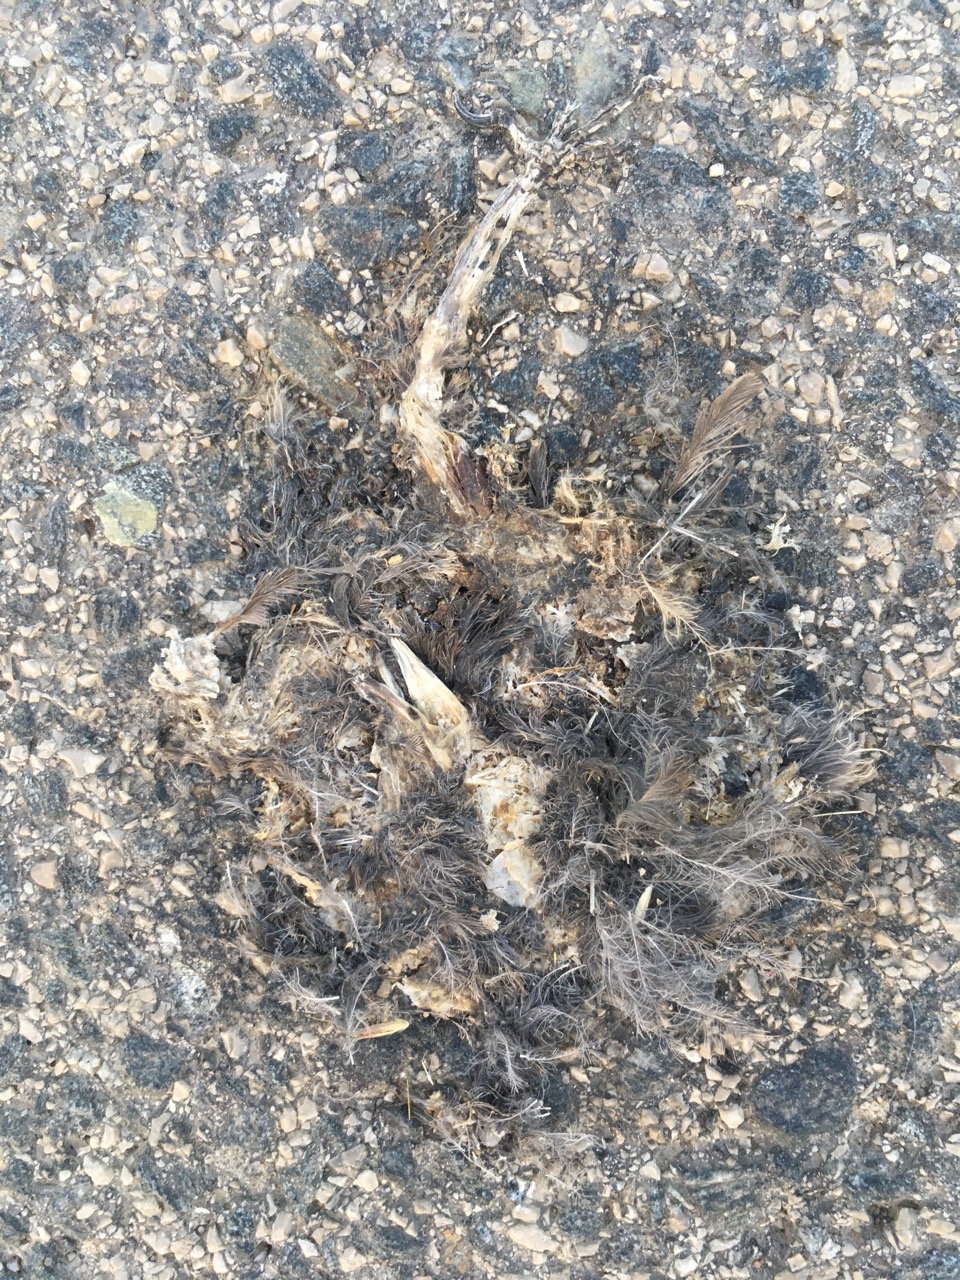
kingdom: Animalia
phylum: Chordata
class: Aves
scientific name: Aves
